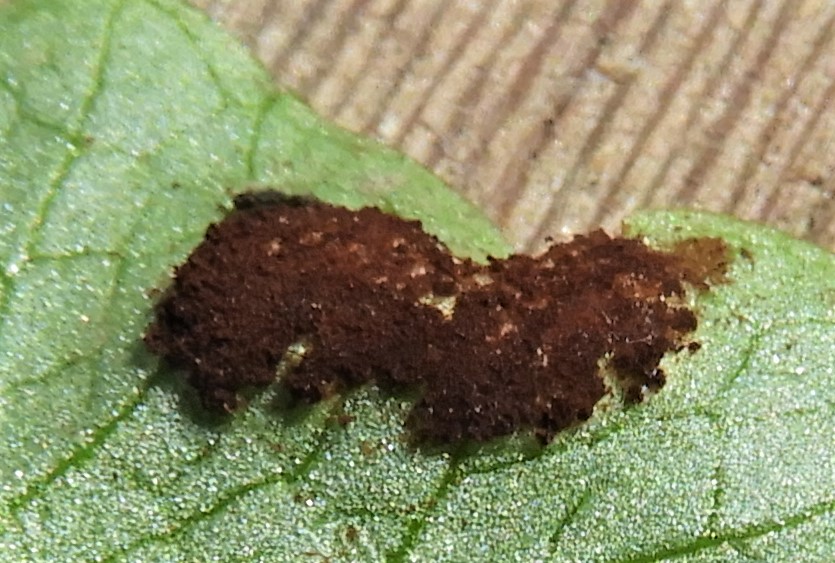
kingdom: Fungi
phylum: Basidiomycota
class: Pucciniomycetes
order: Pucciniales
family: Pucciniaceae
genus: Uromyces
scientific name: Uromyces ficariae
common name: vorterod-encellerust
